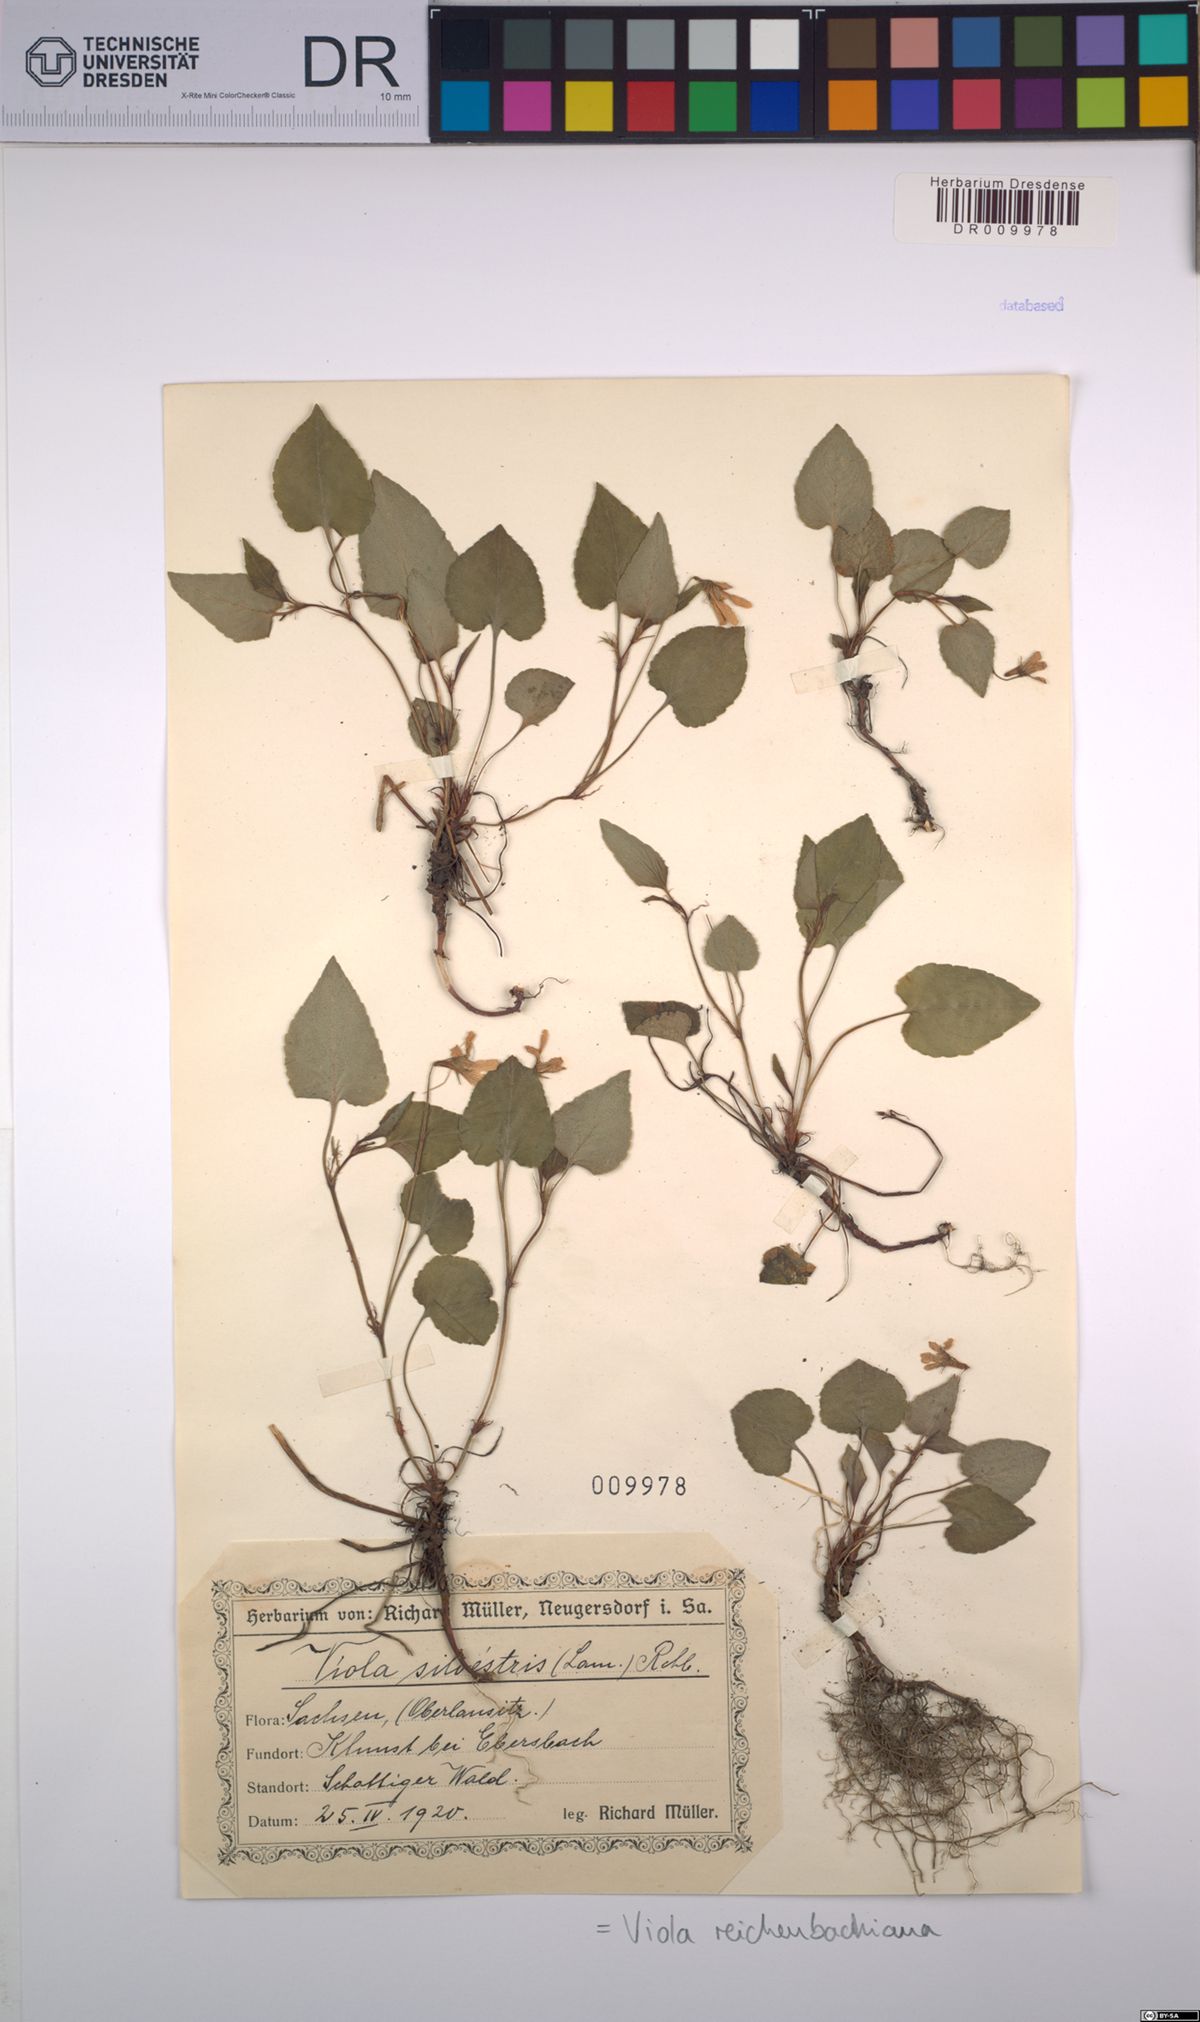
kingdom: Plantae
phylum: Tracheophyta
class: Magnoliopsida
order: Malpighiales
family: Violaceae
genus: Viola
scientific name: Viola reichenbachiana
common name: Early dog-violet
